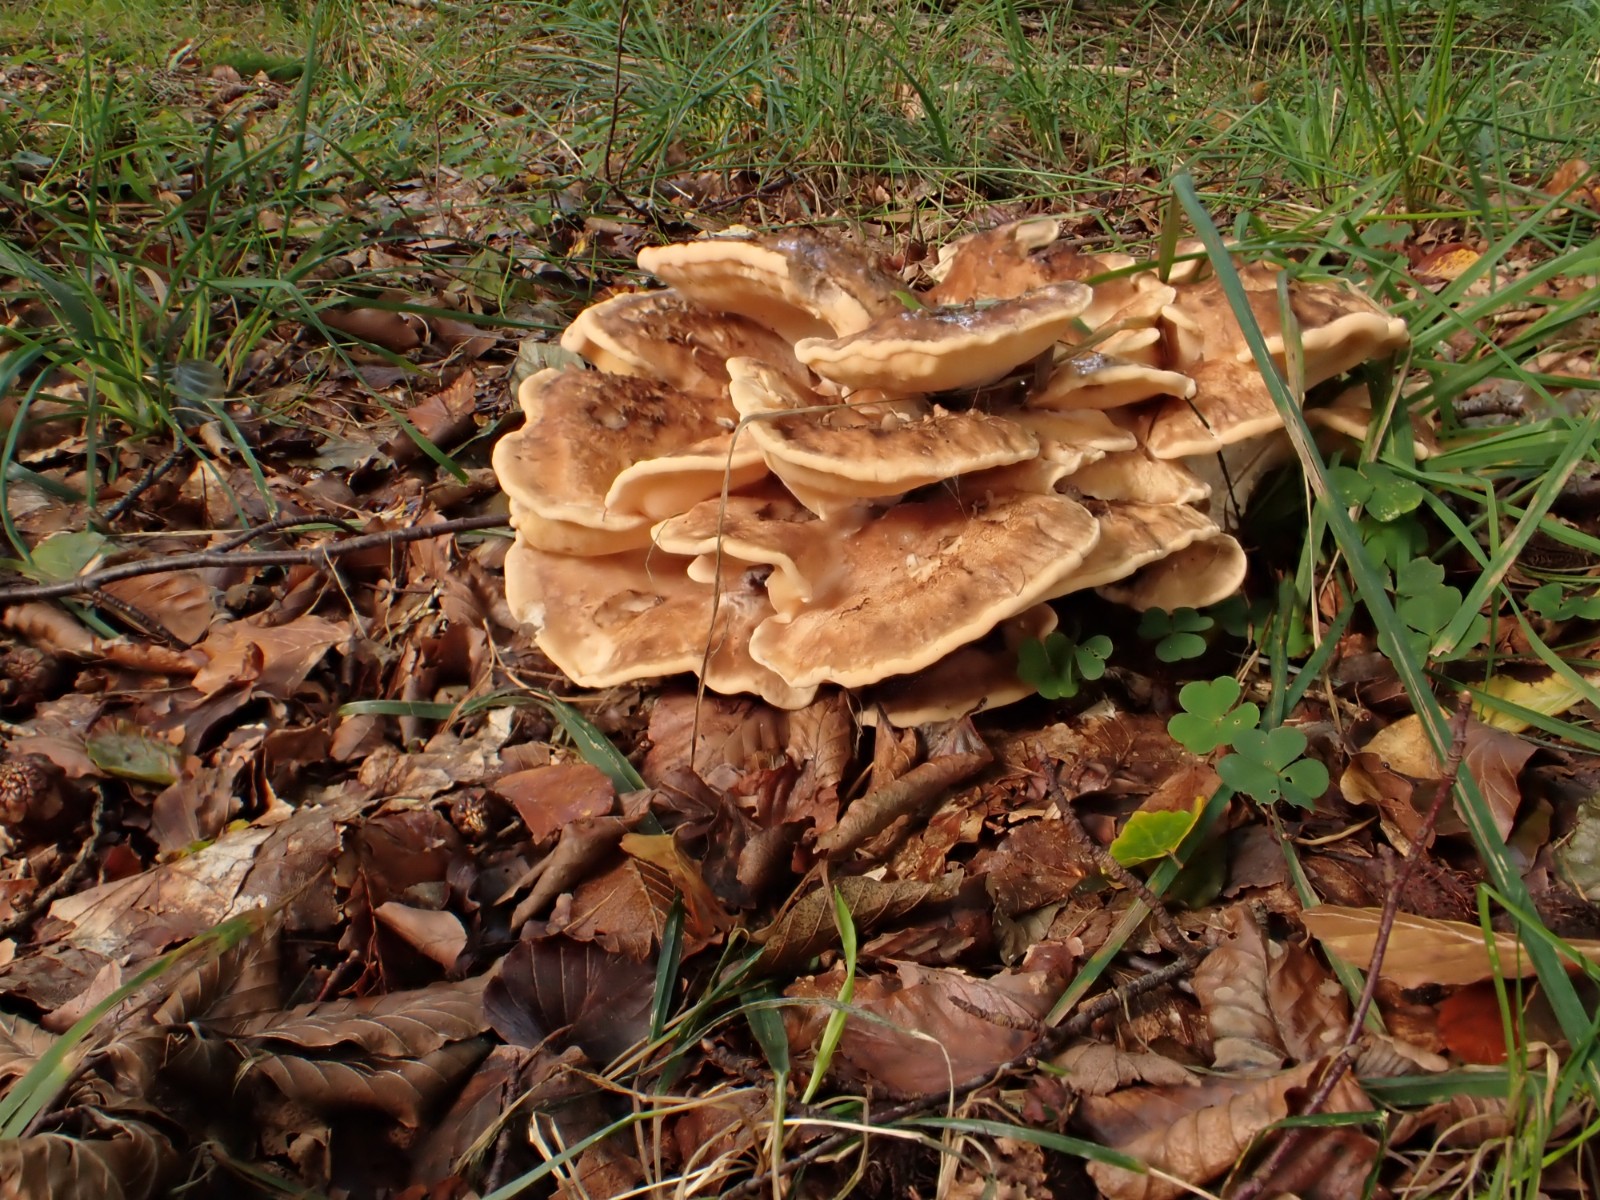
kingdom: Fungi
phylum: Basidiomycota
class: Agaricomycetes
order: Polyporales
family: Meripilaceae
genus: Meripilus
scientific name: Meripilus giganteus
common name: kæmpeporesvamp
